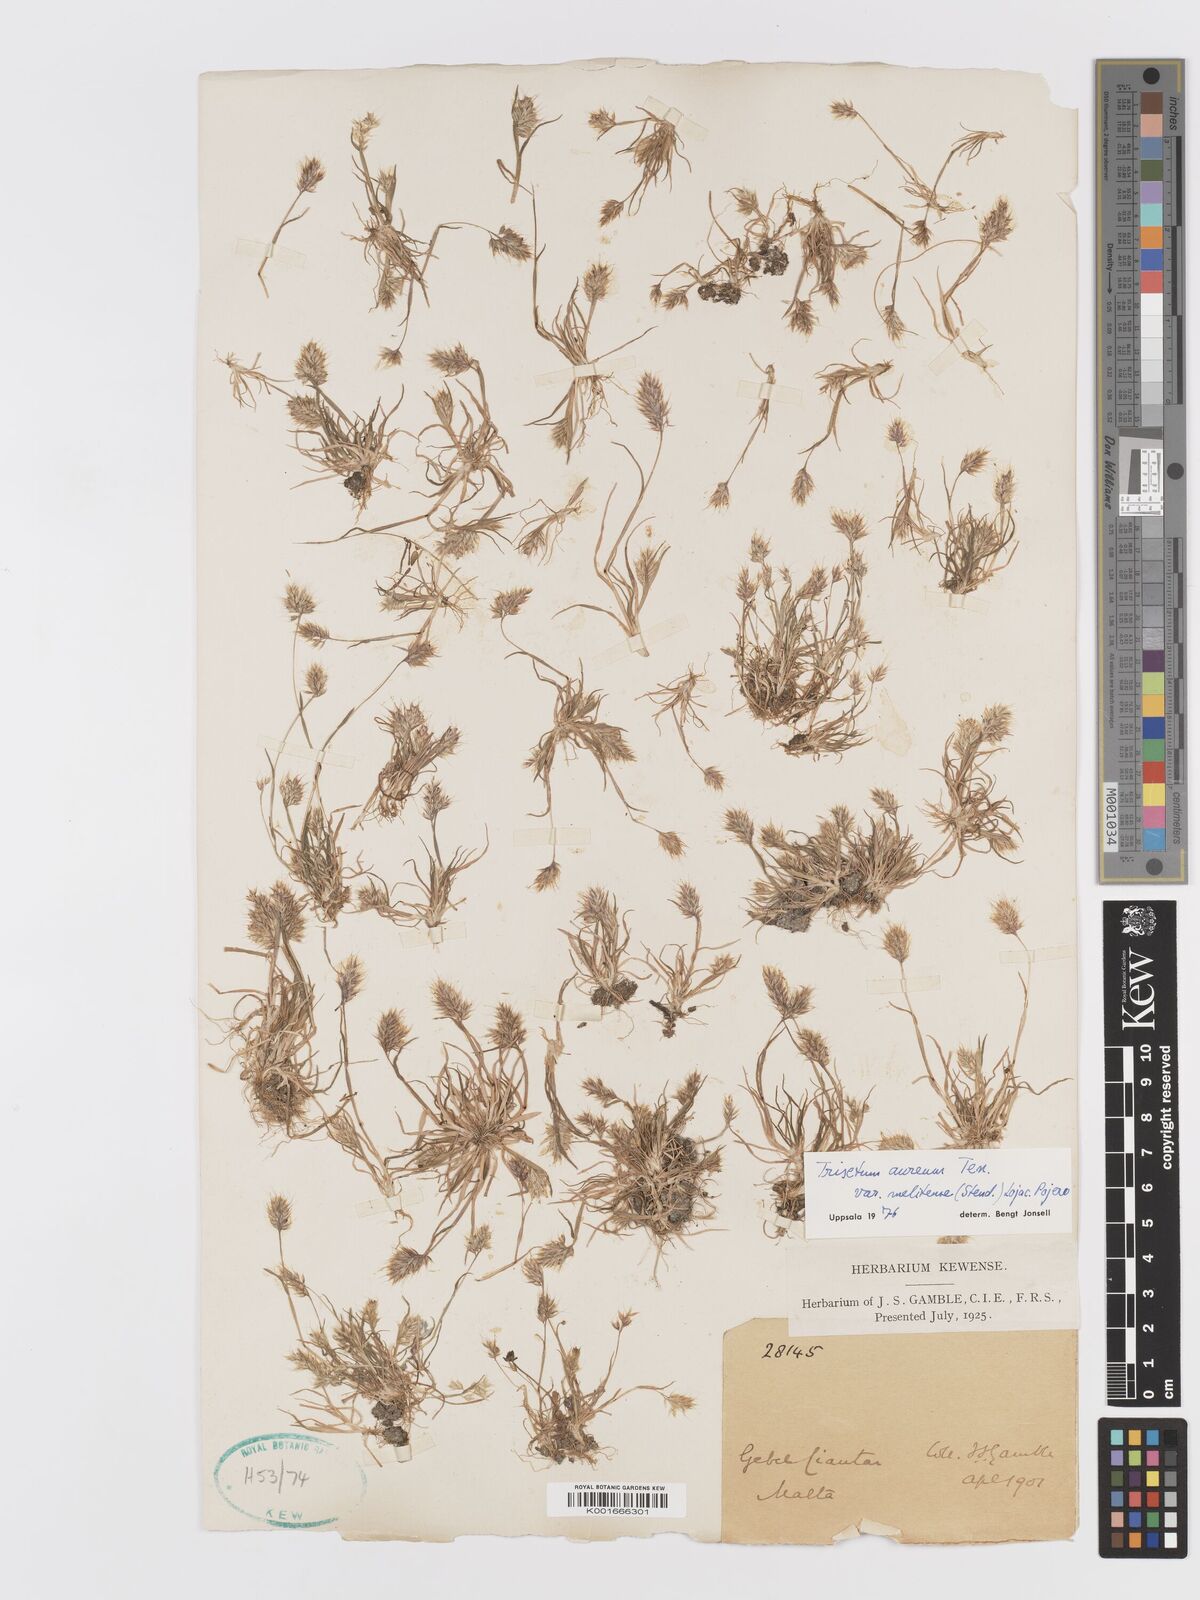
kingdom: Plantae
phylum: Tracheophyta
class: Liliopsida
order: Poales
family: Poaceae
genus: Trisetaria
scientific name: Trisetaria aurea
